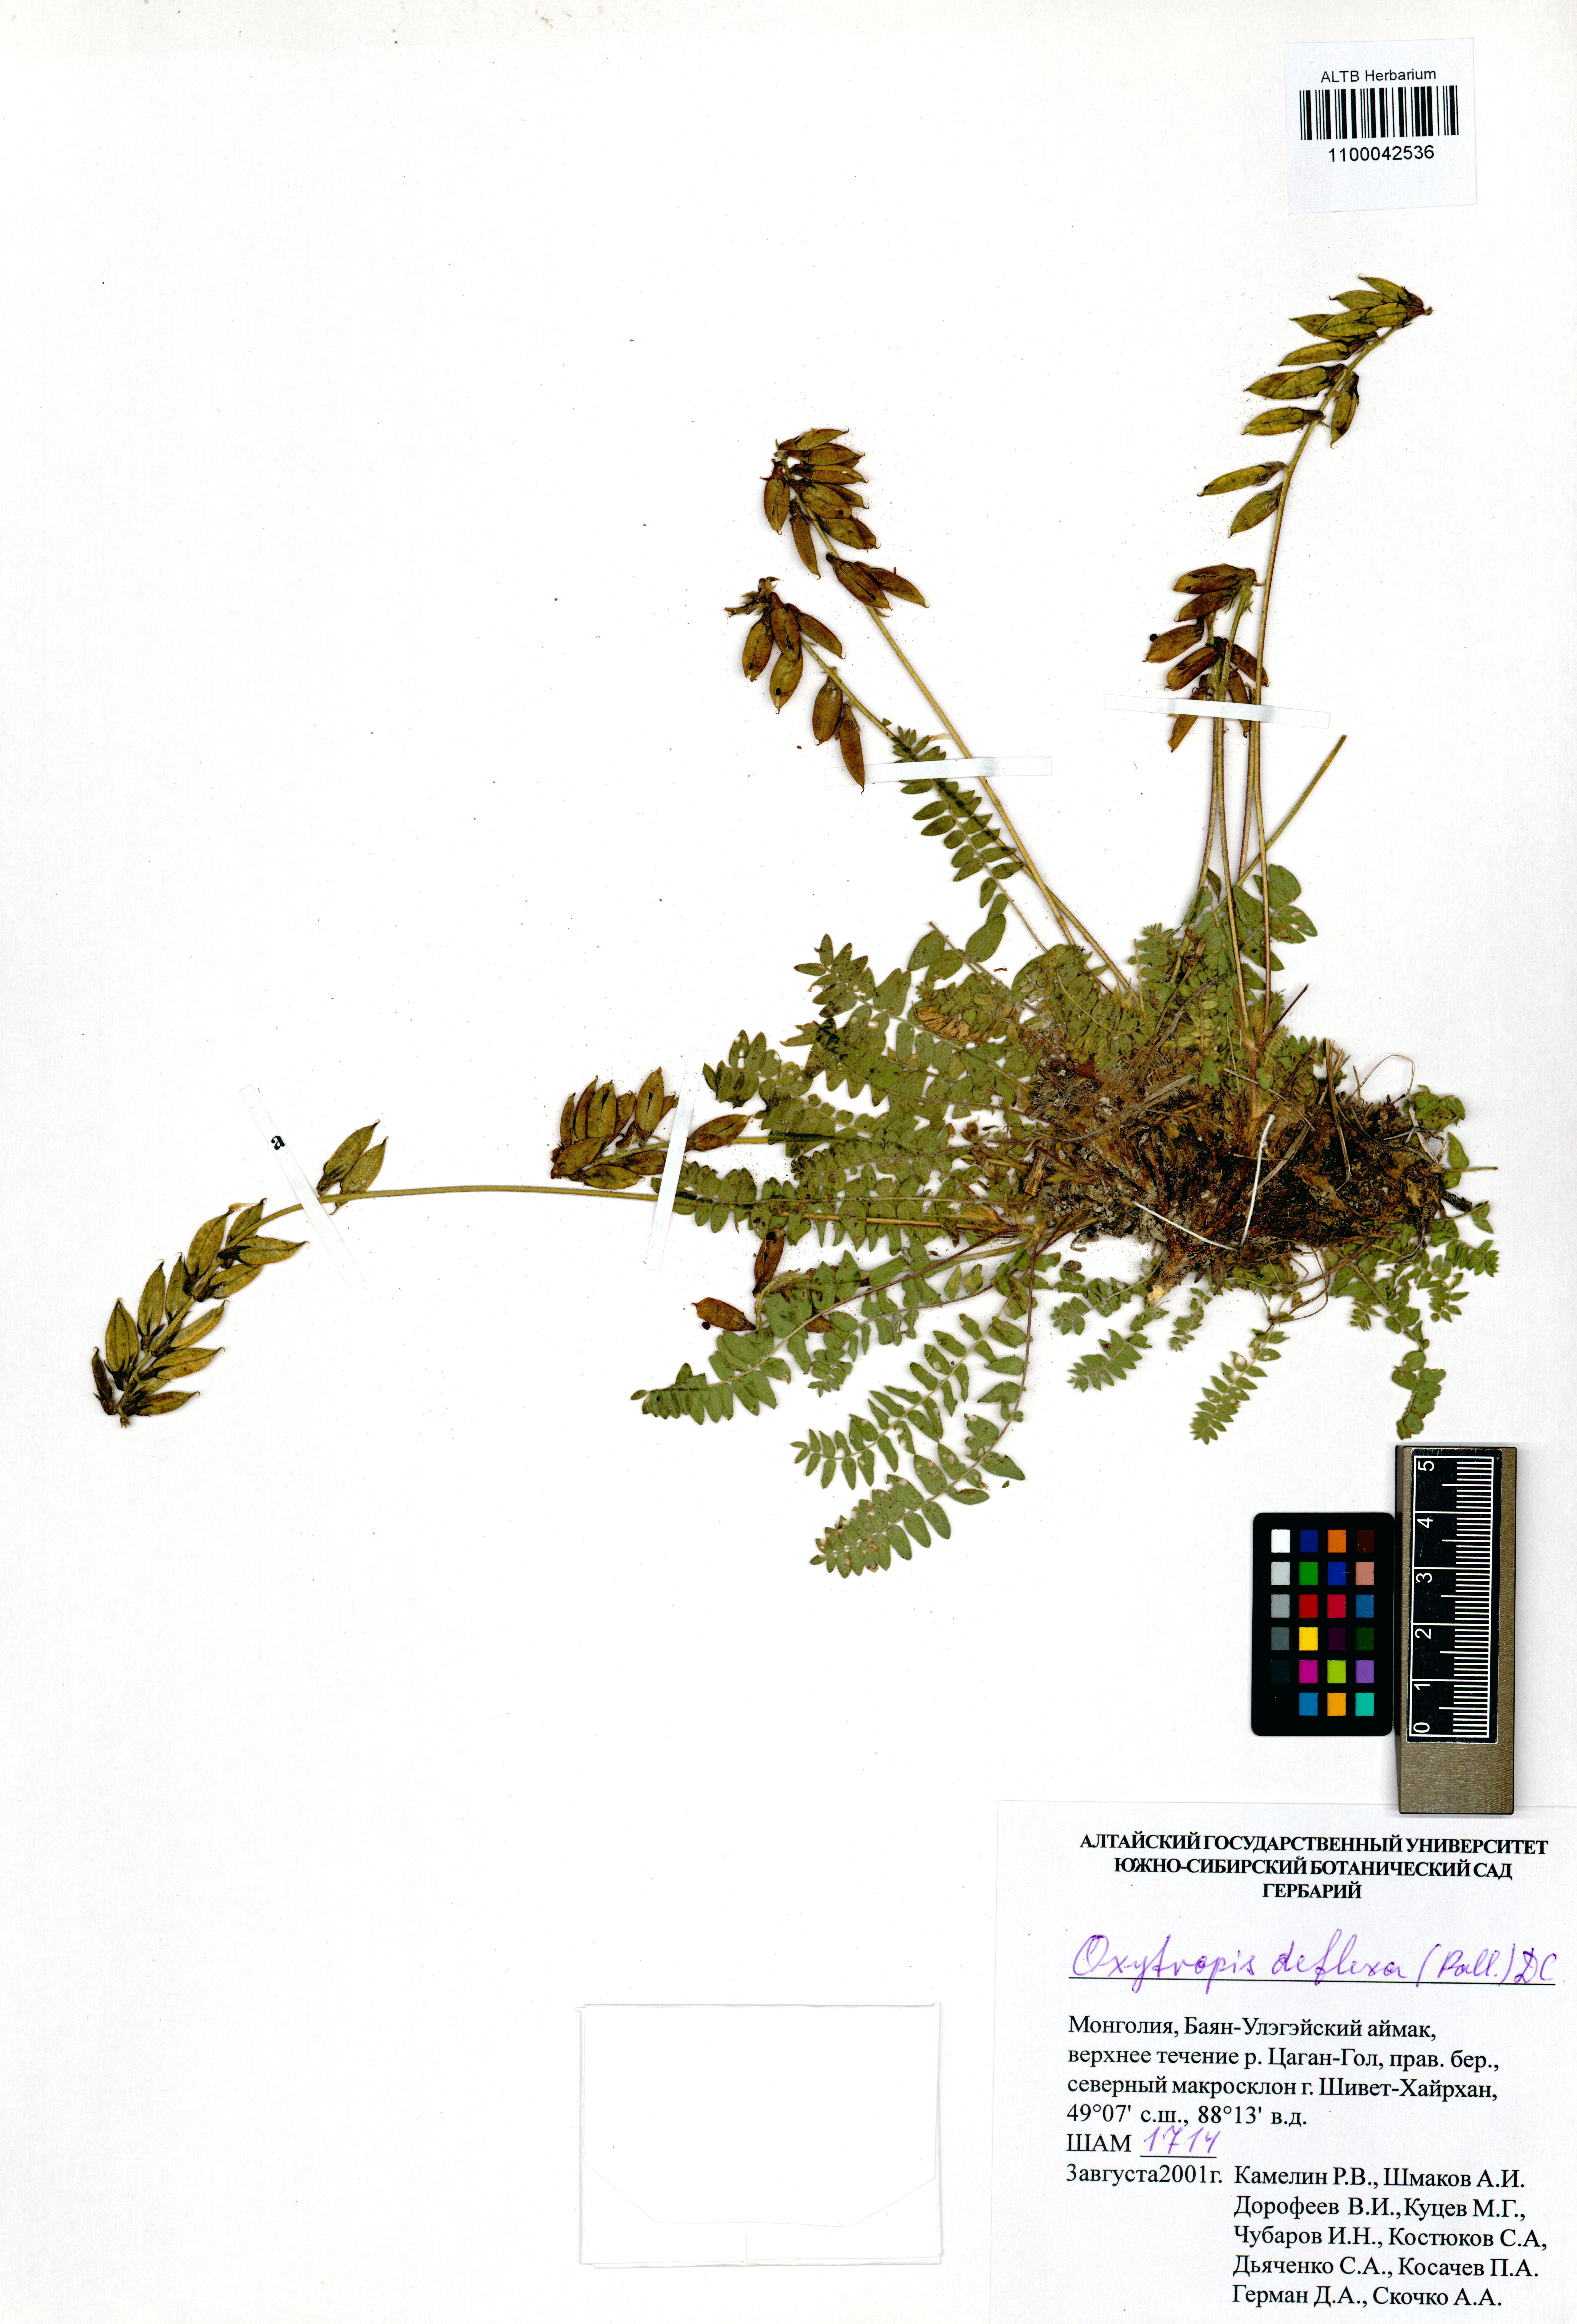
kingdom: Plantae
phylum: Tracheophyta
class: Magnoliopsida
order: Fabales
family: Fabaceae
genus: Oxytropis
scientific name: Oxytropis deflexa
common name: Stemmed oxytrope
